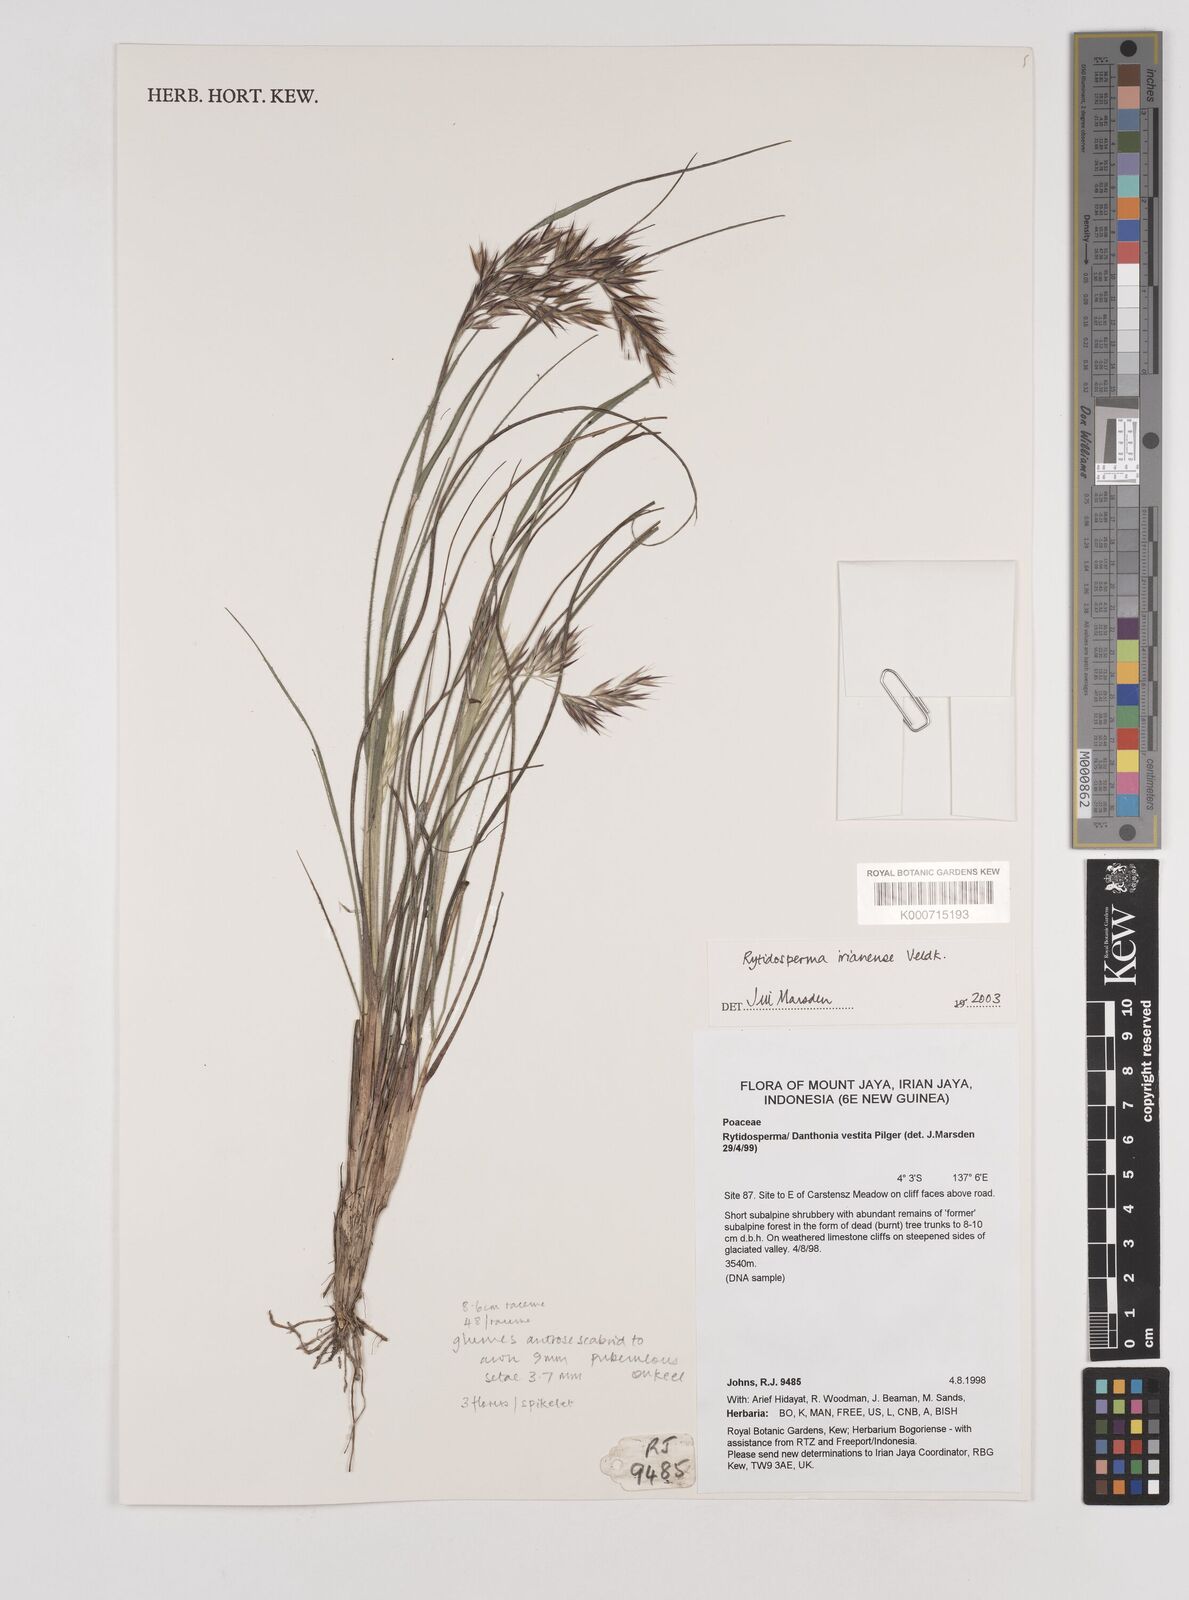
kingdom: Plantae
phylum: Tracheophyta
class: Liliopsida
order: Poales
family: Poaceae
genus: Rytidosperma
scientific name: Rytidosperma vestitum
